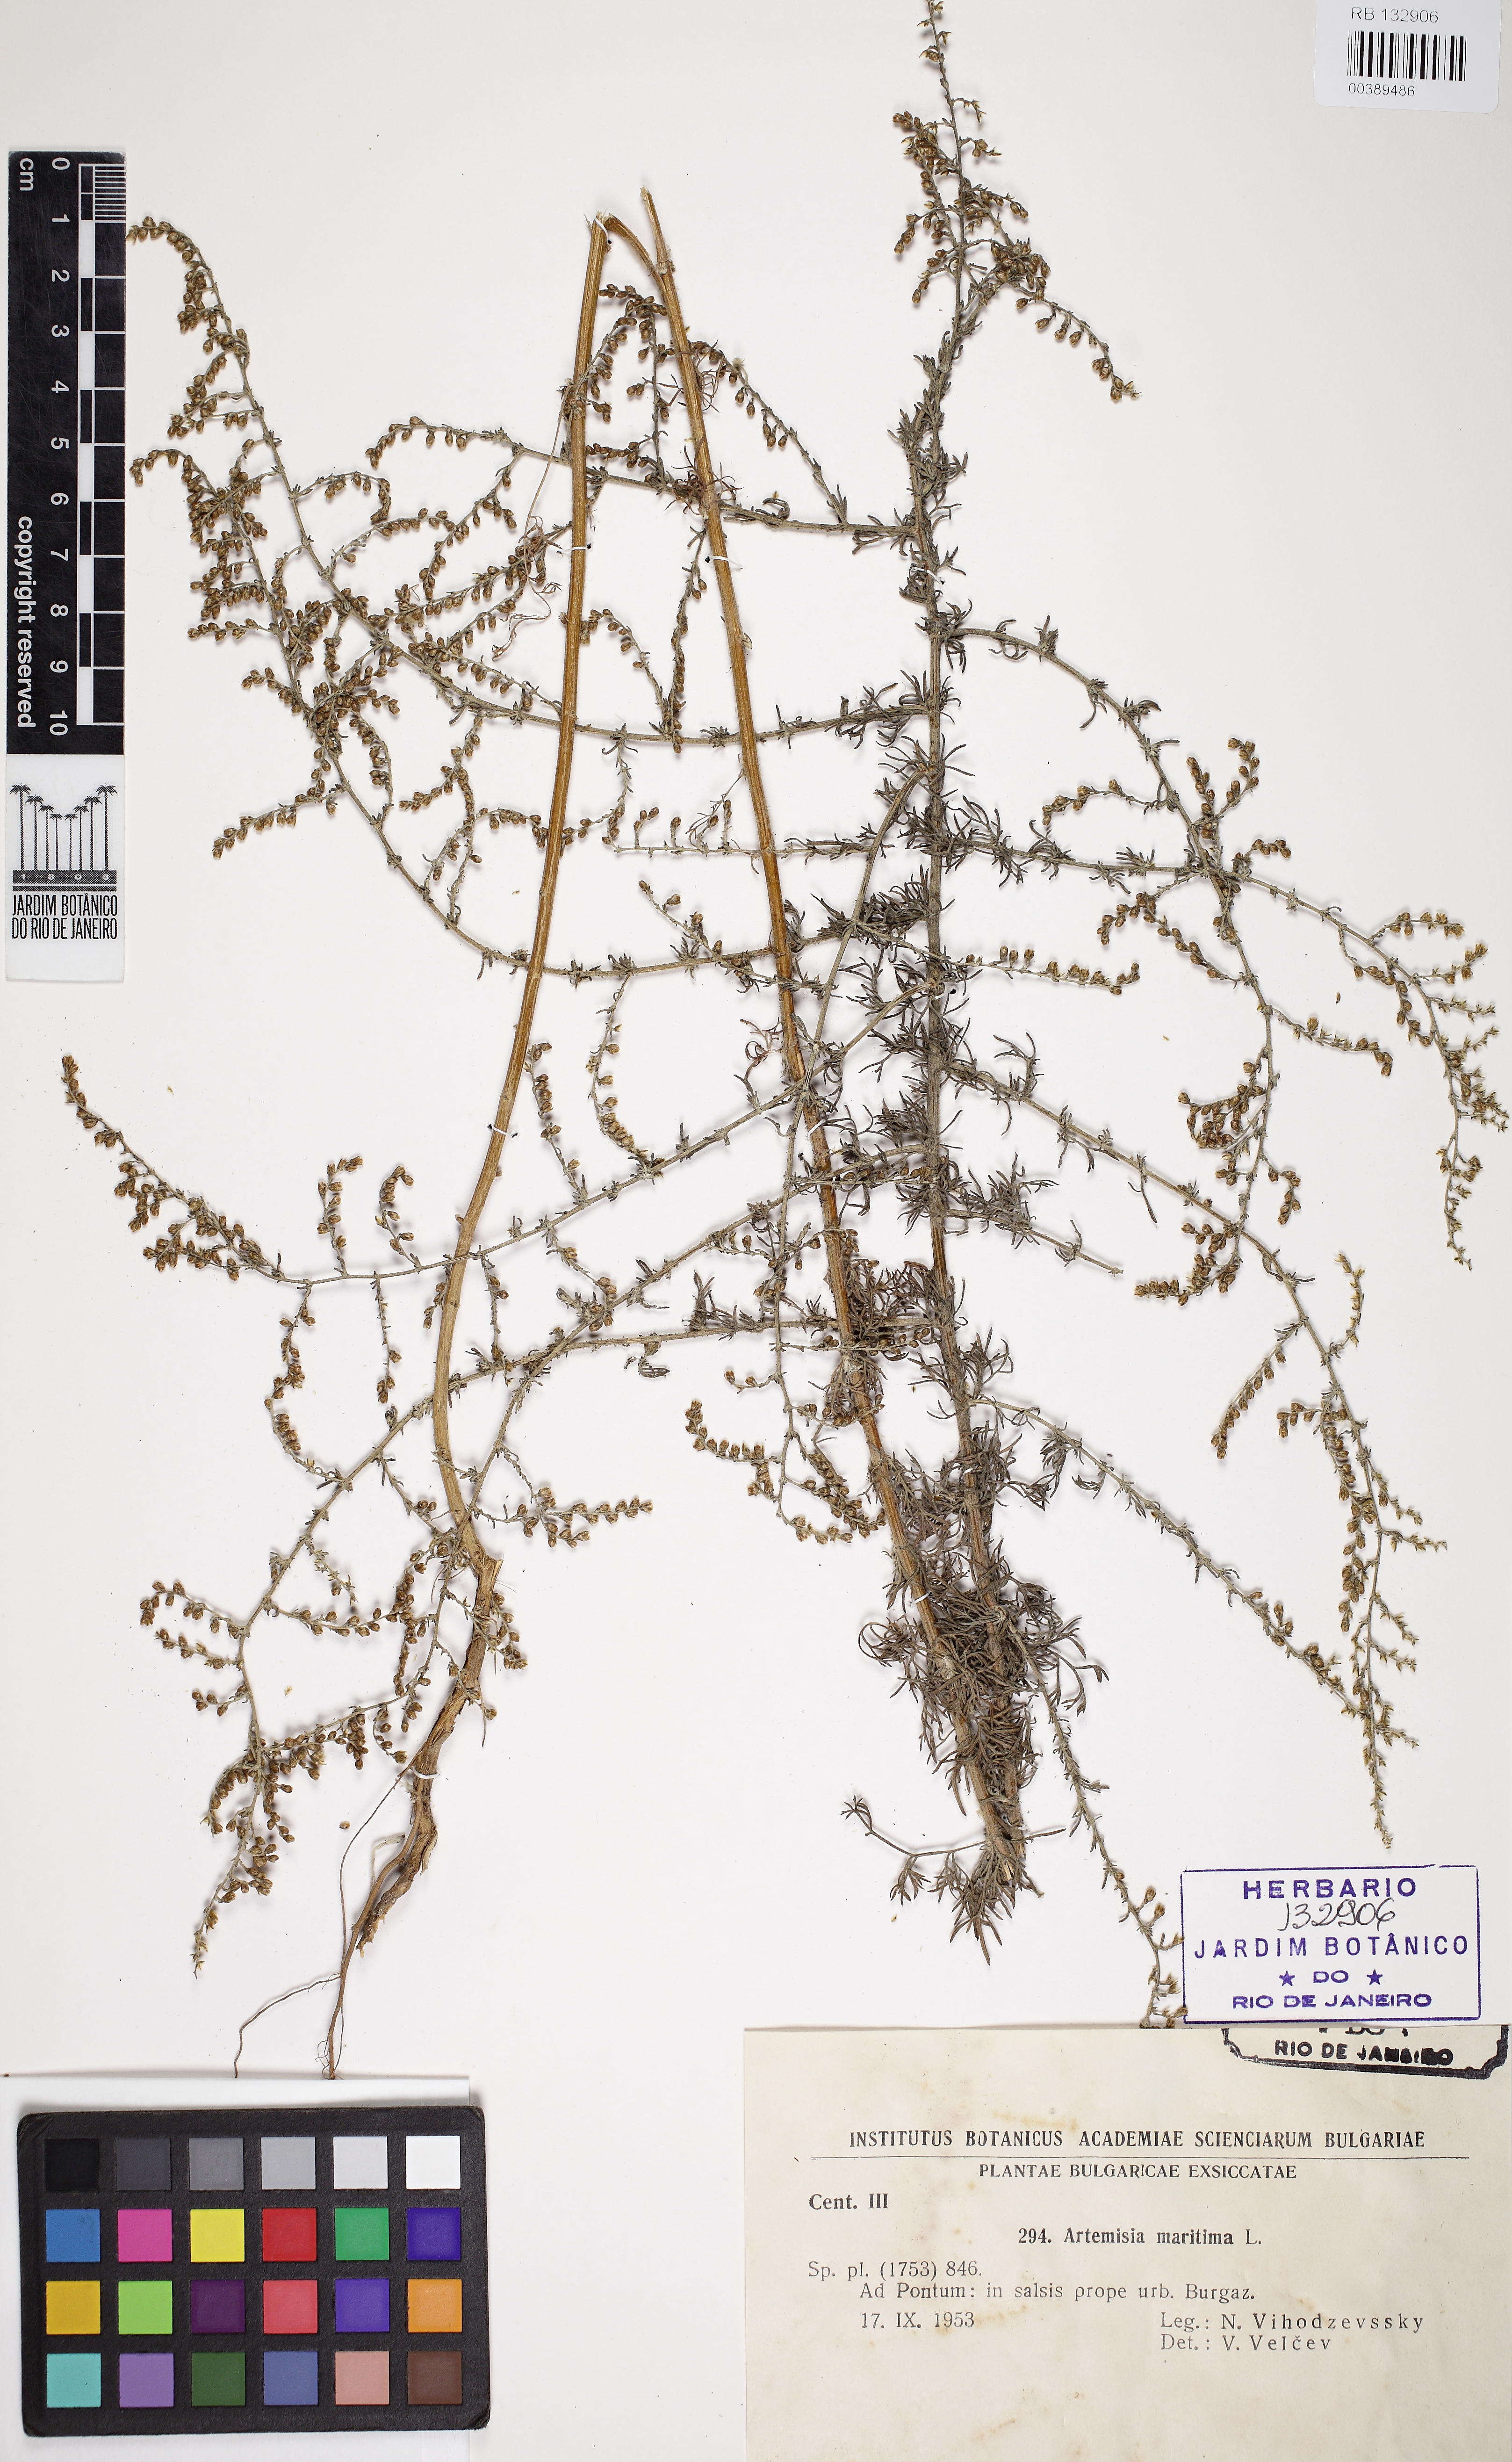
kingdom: Plantae
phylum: Tracheophyta
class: Magnoliopsida
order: Asterales
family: Asteraceae
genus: Artemisia
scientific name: Artemisia maritima
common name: Wormseed
